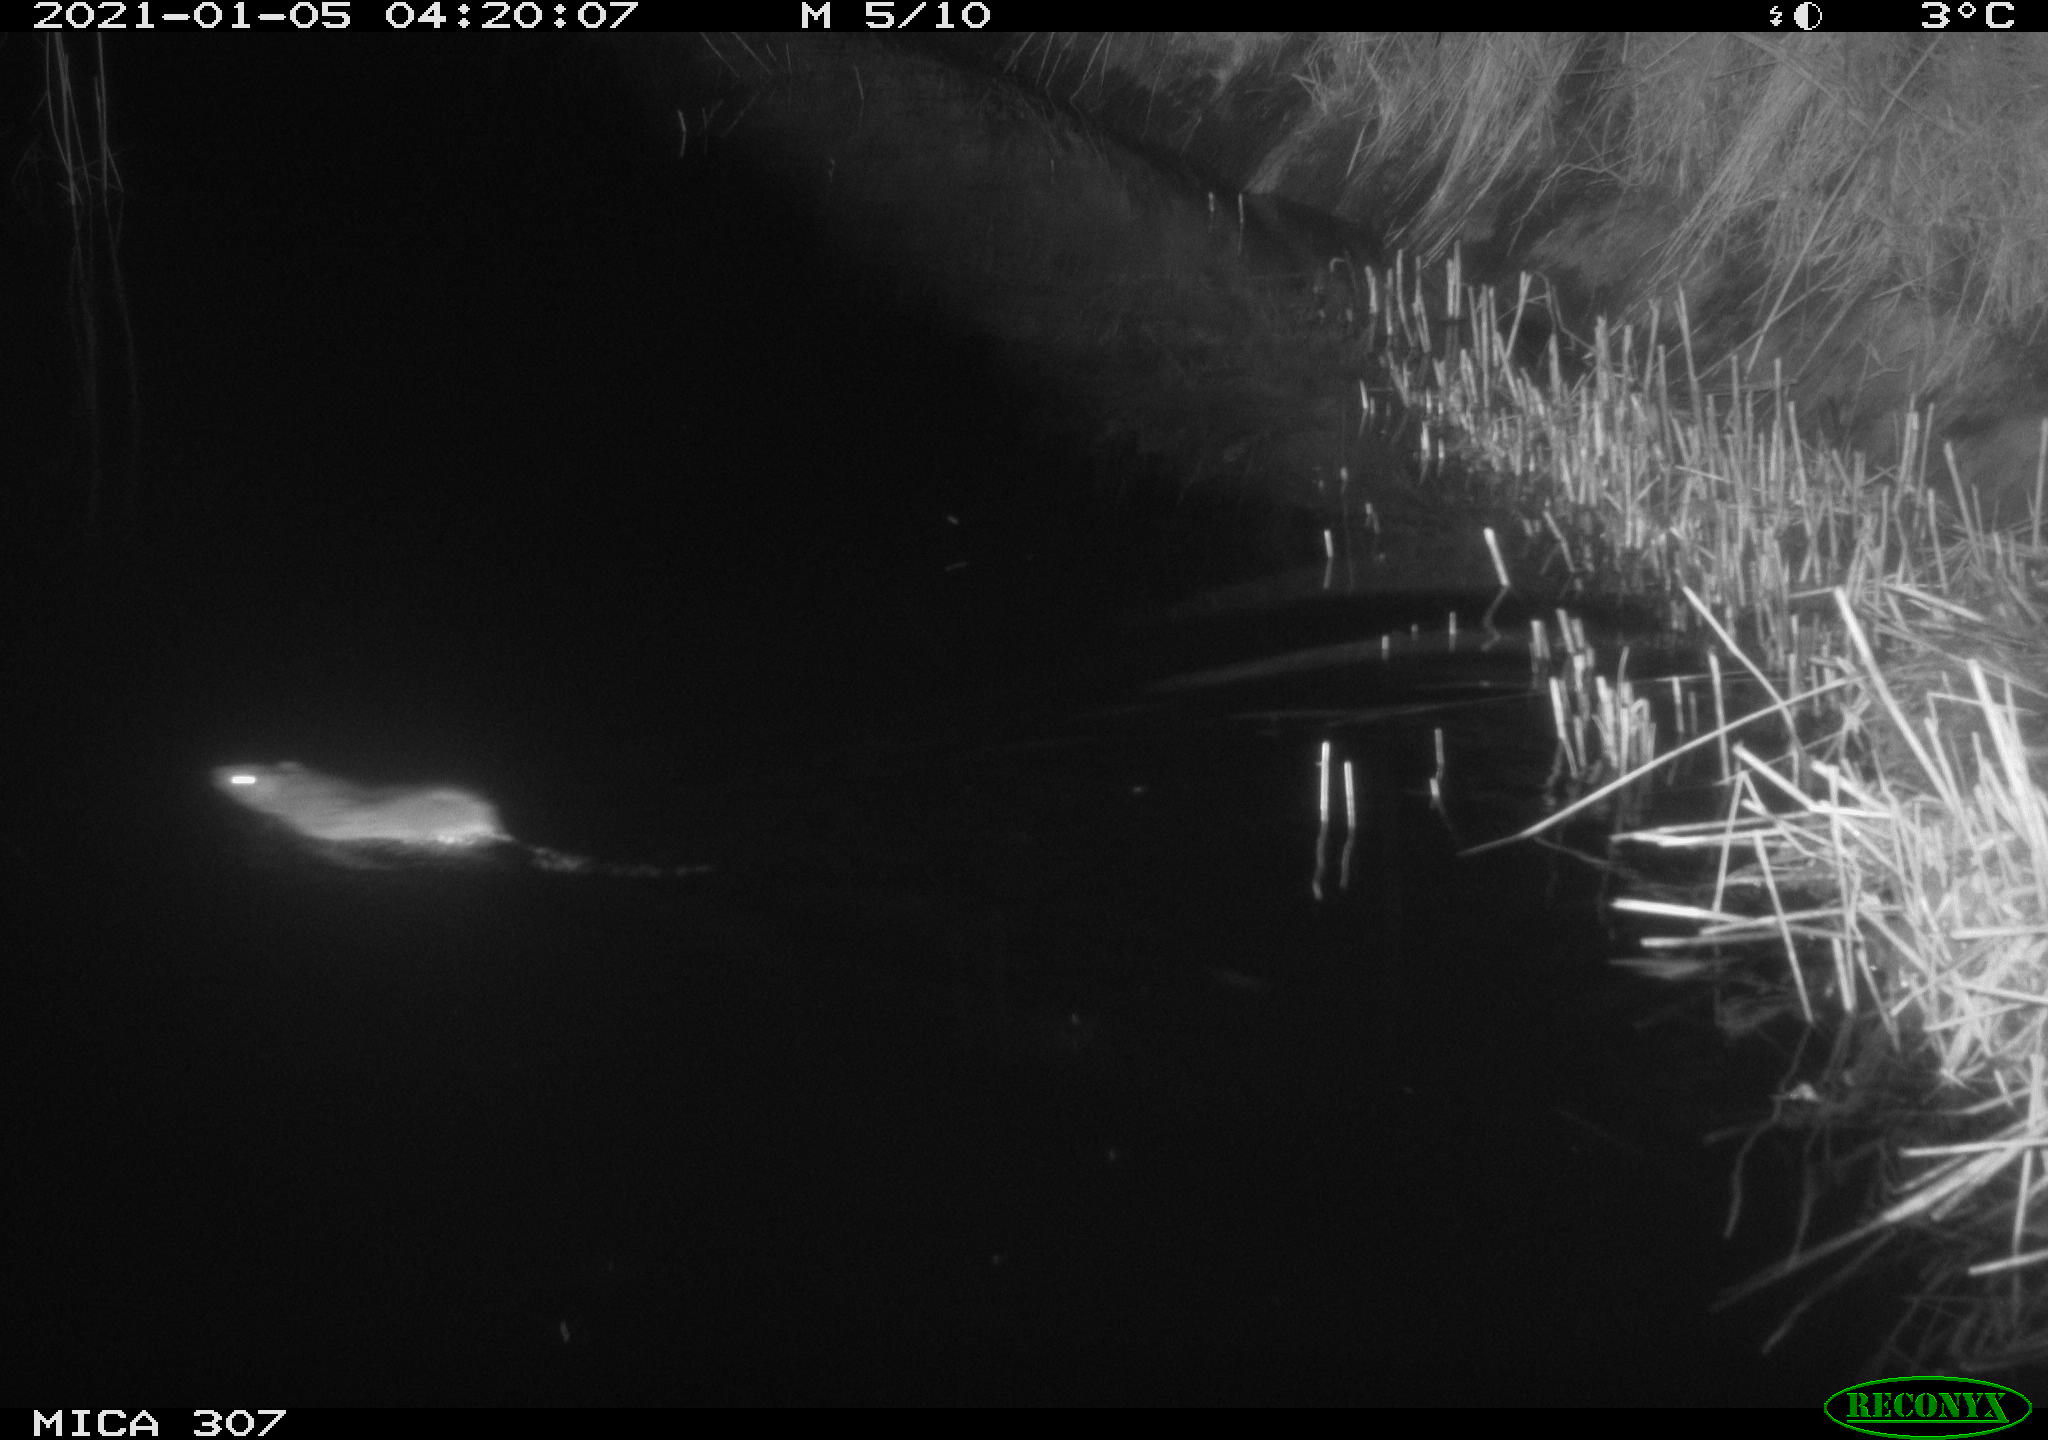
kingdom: Animalia
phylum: Chordata
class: Mammalia
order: Rodentia
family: Muridae
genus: Rattus
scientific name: Rattus norvegicus
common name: Brown rat
